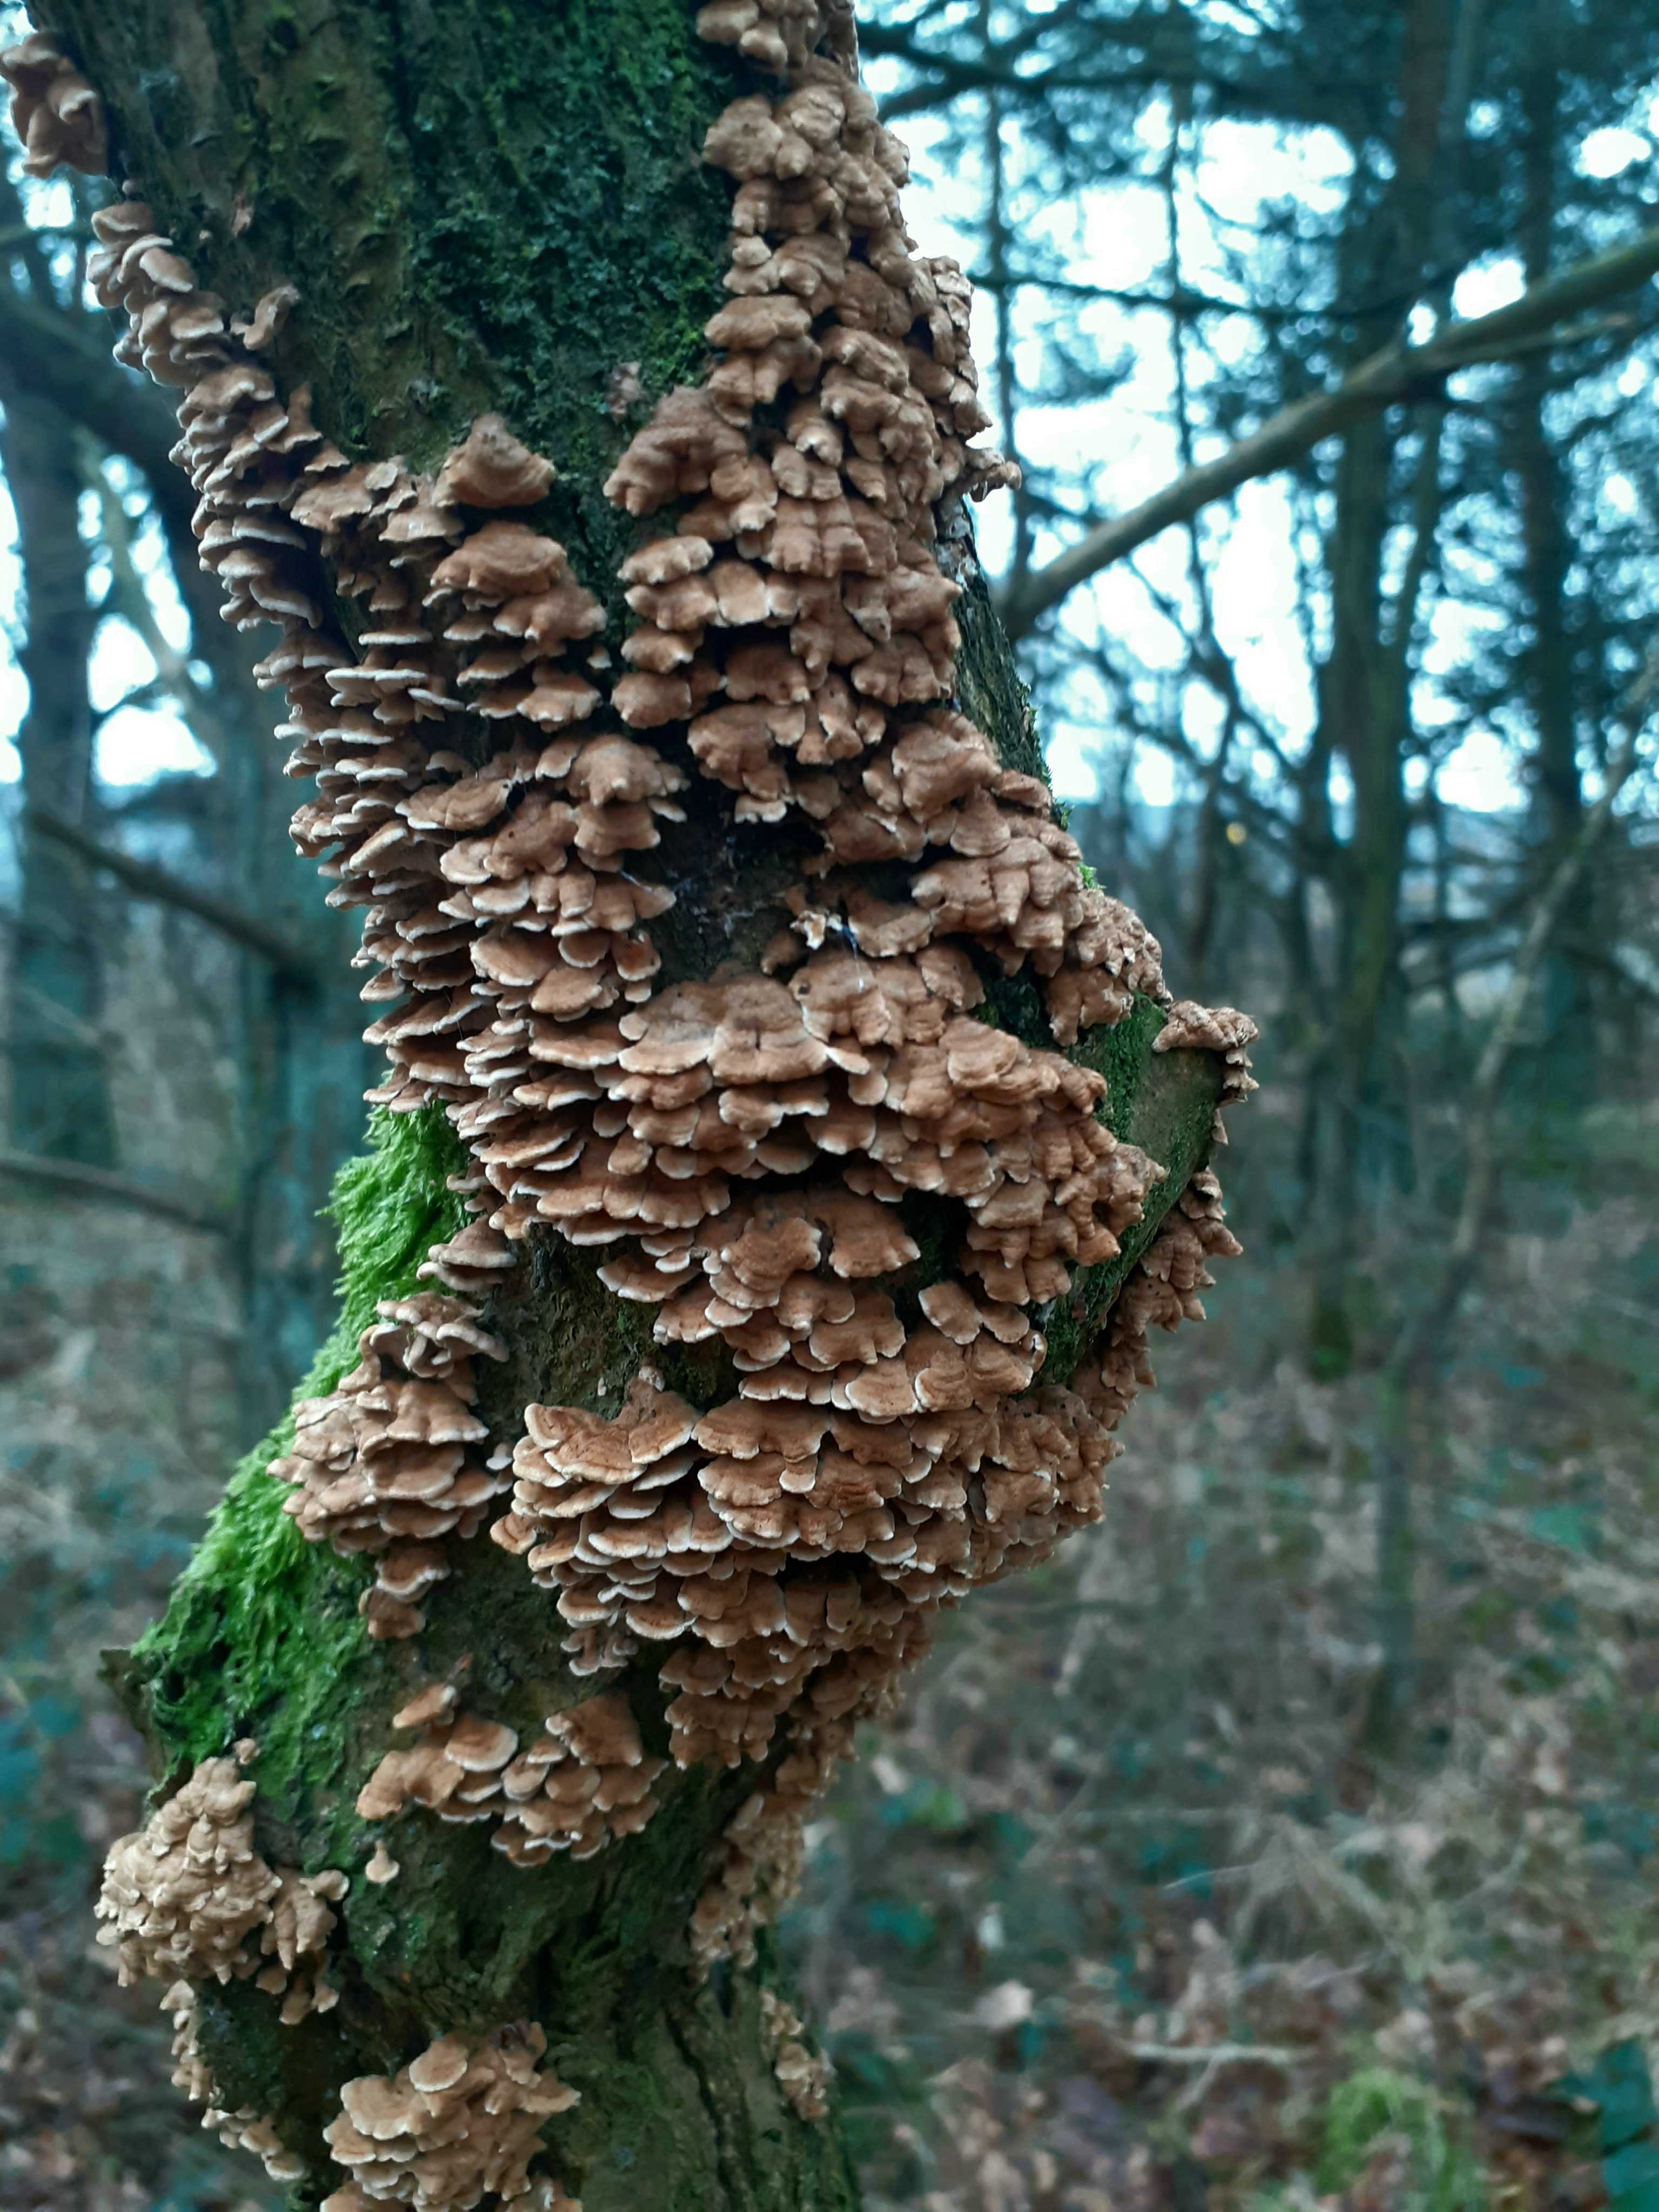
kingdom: Fungi
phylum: Basidiomycota
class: Agaricomycetes
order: Amylocorticiales
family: Amylocorticiaceae
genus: Plicaturopsis
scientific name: Plicaturopsis crispa
